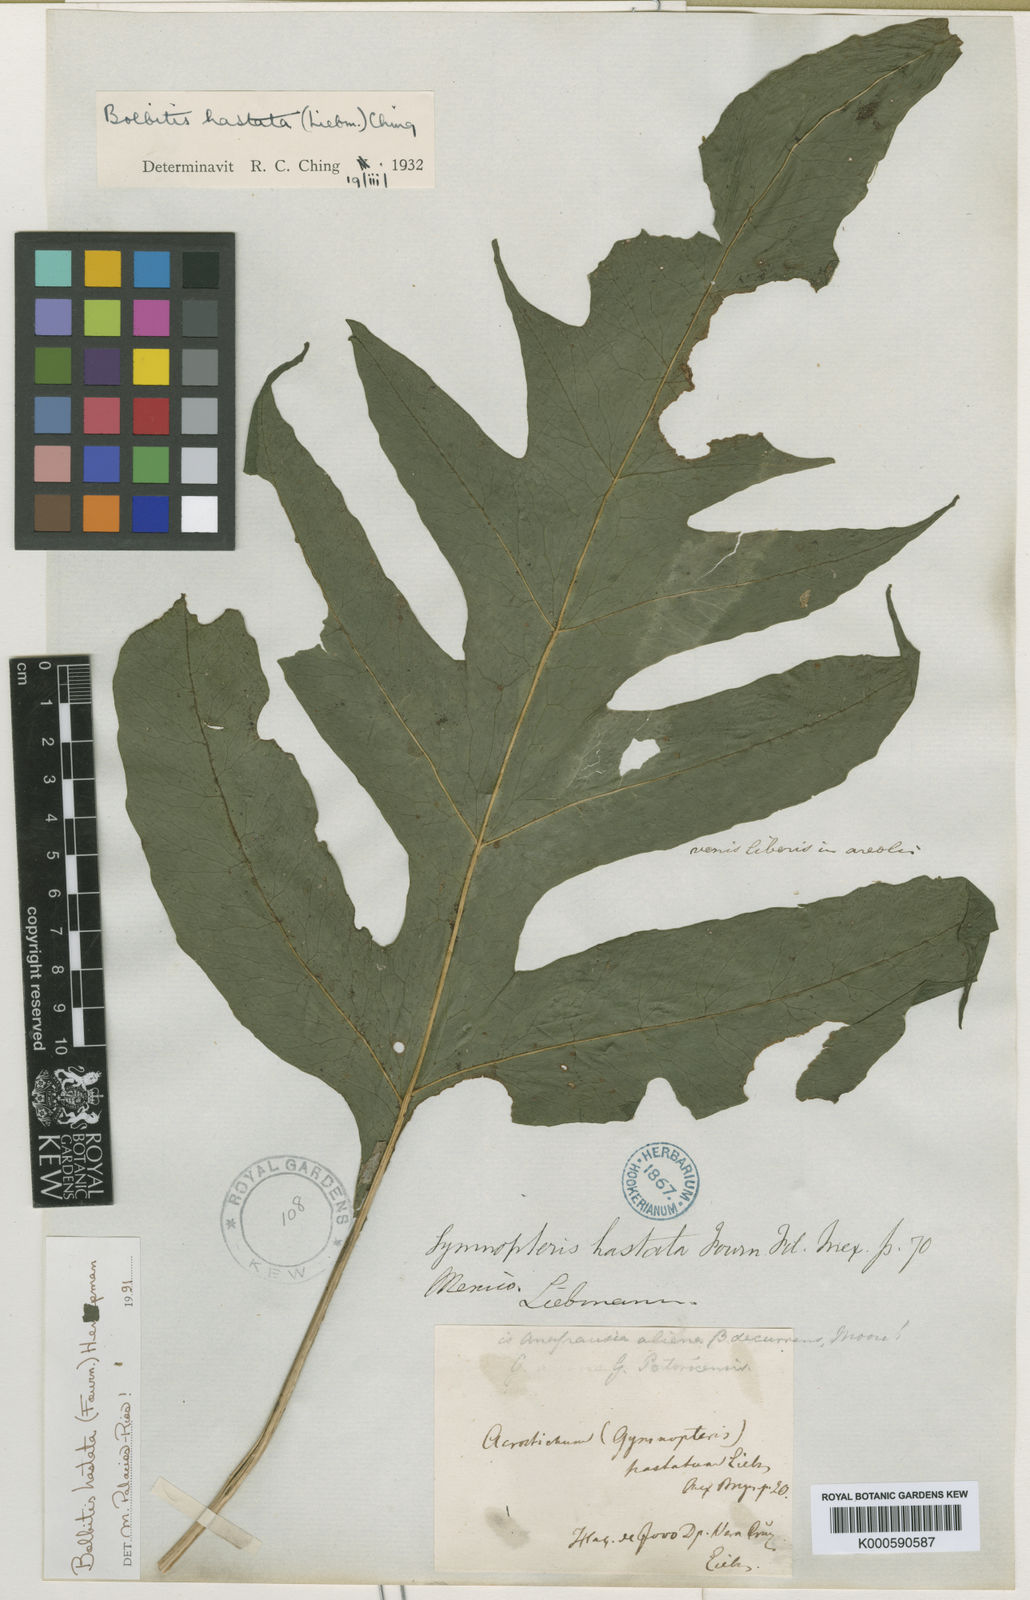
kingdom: Plantae
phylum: Tracheophyta
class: Polypodiopsida
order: Polypodiales
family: Dryopteridaceae
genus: Bolbitis
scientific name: Bolbitis hastata
